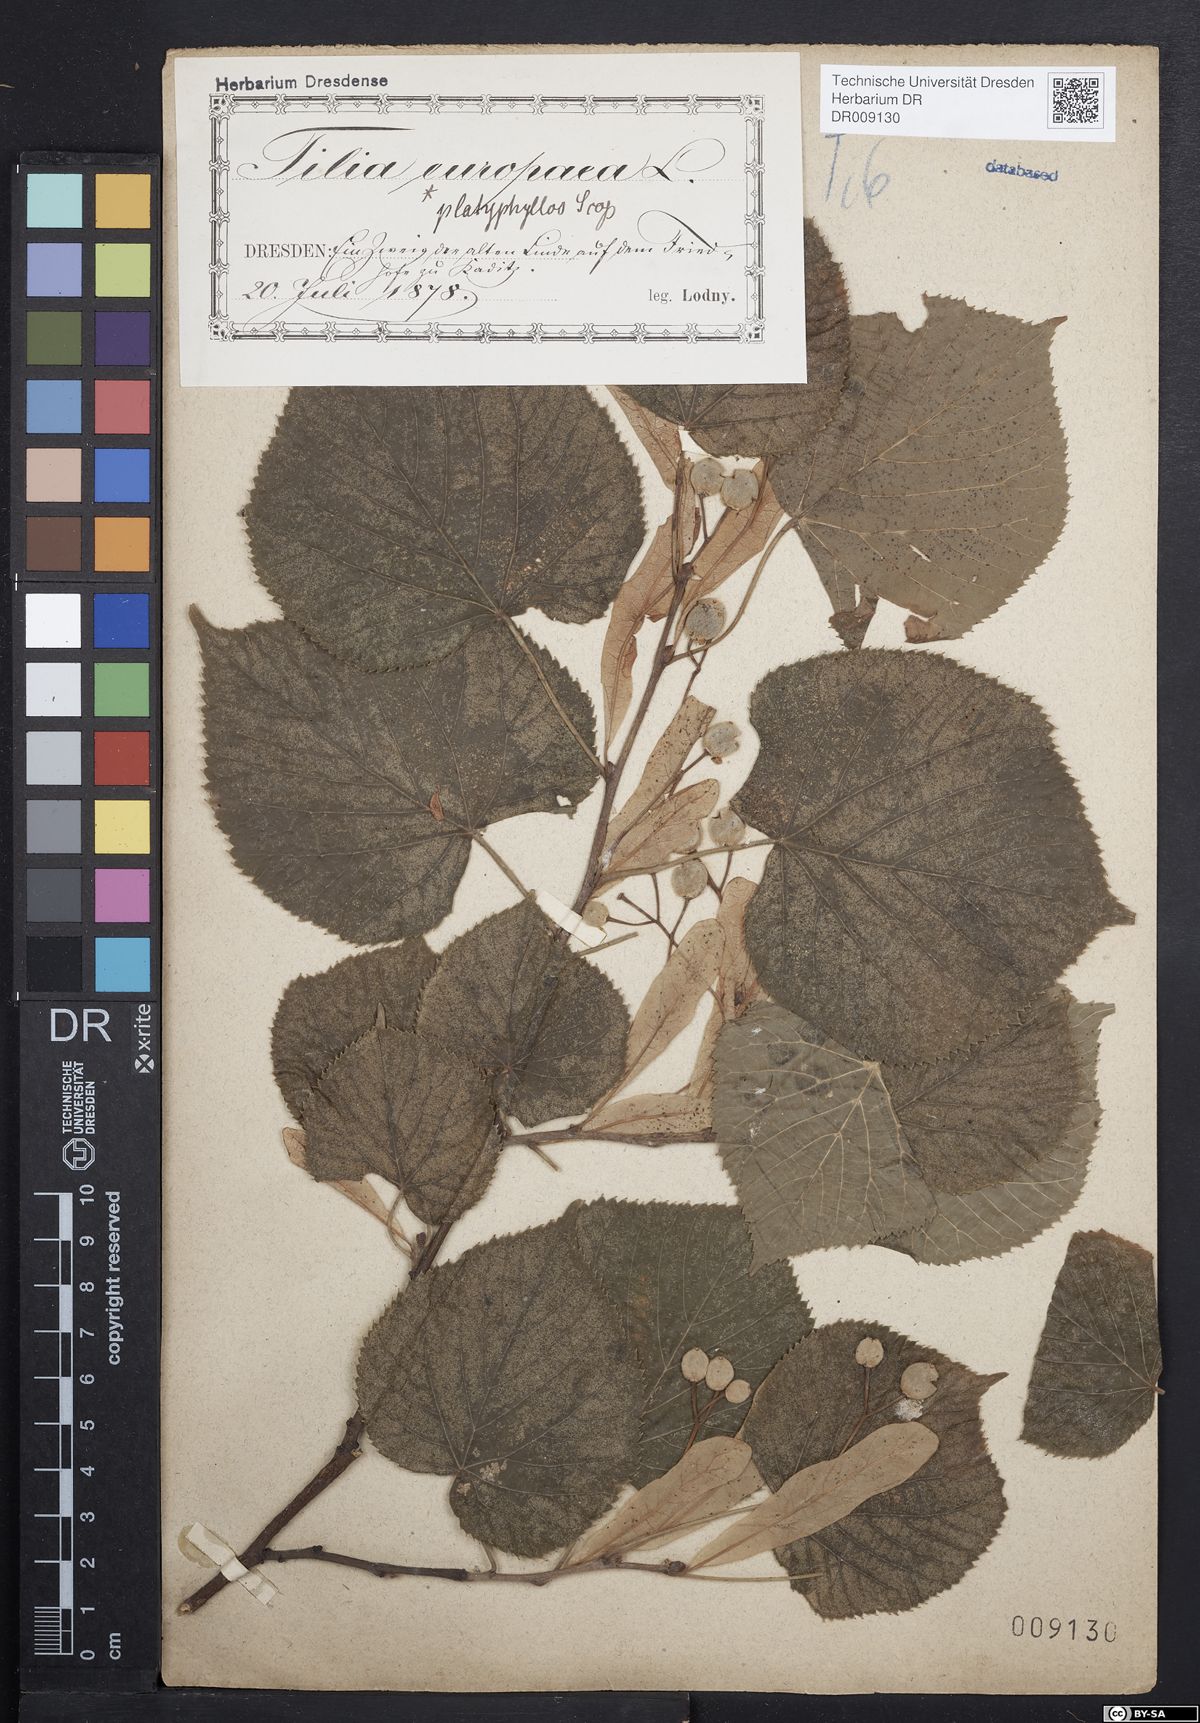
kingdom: Plantae
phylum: Tracheophyta
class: Magnoliopsida
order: Malvales
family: Malvaceae
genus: Tilia
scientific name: Tilia platyphyllos
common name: Large-leaved lime
